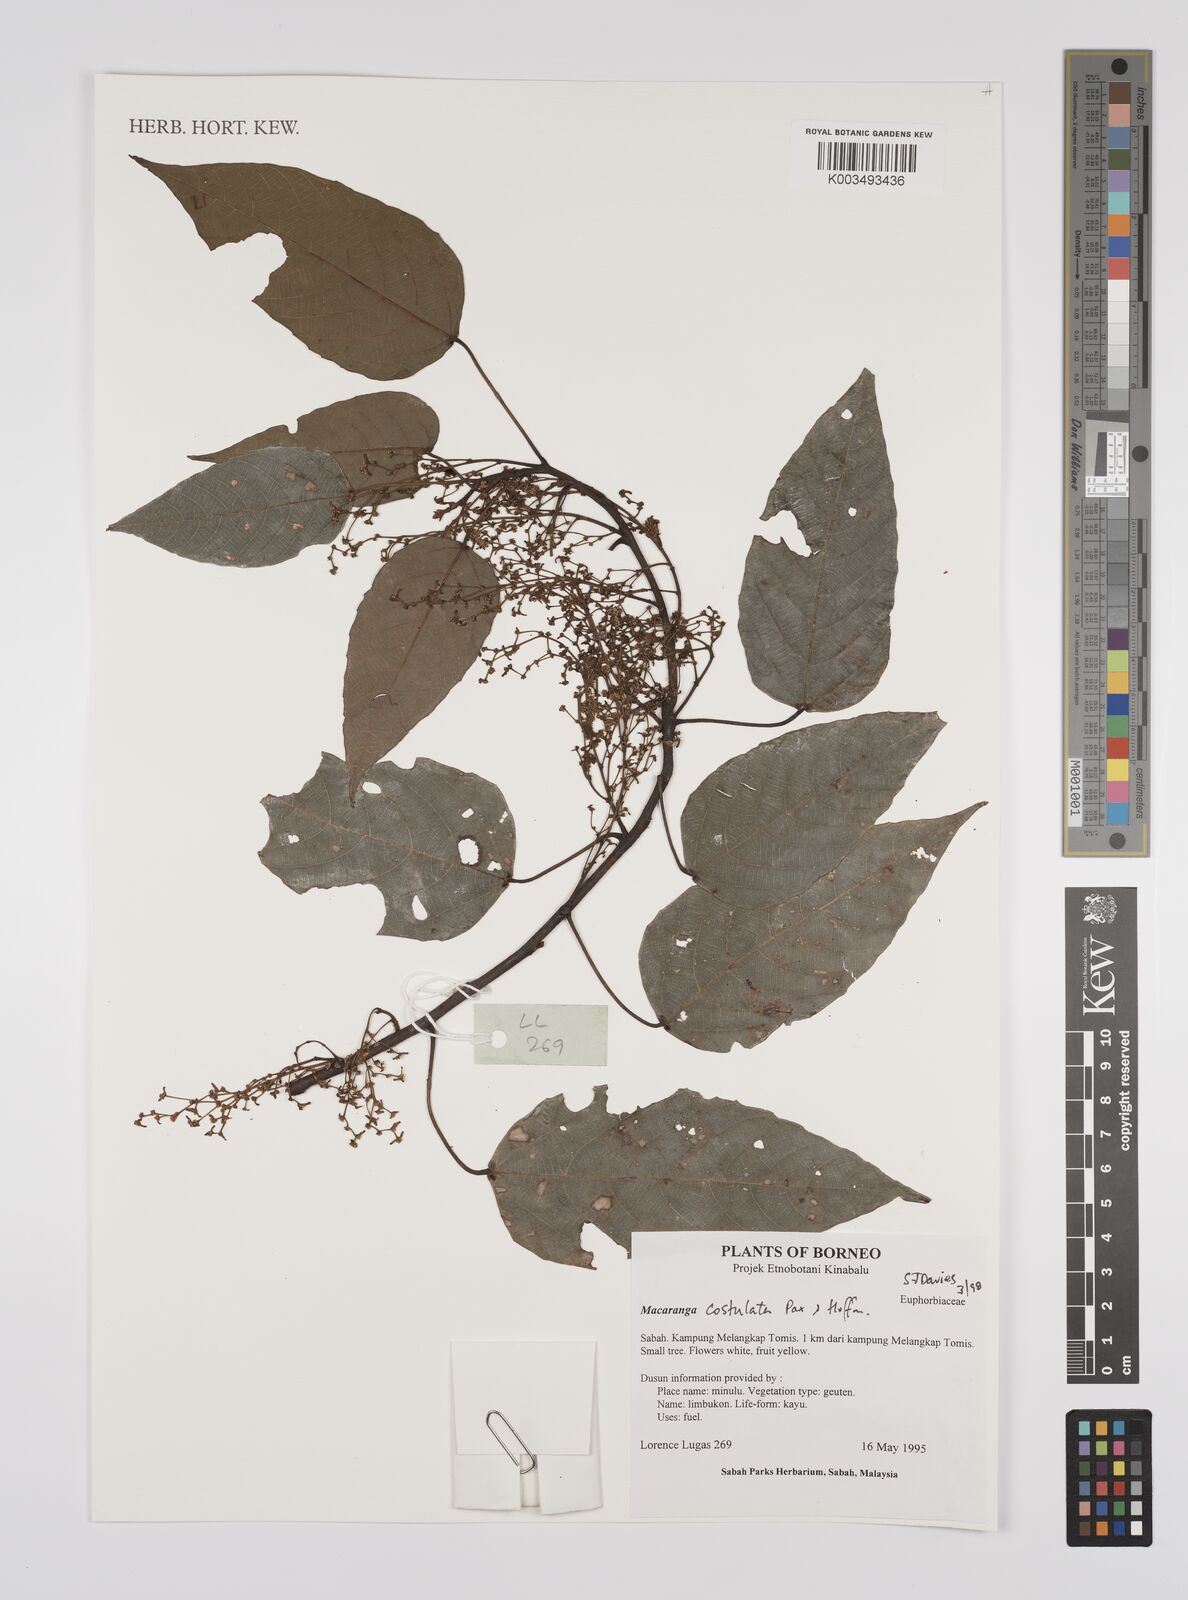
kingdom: Plantae
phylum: Tracheophyta
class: Magnoliopsida
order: Malpighiales
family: Euphorbiaceae
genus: Macaranga
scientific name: Macaranga costulata
